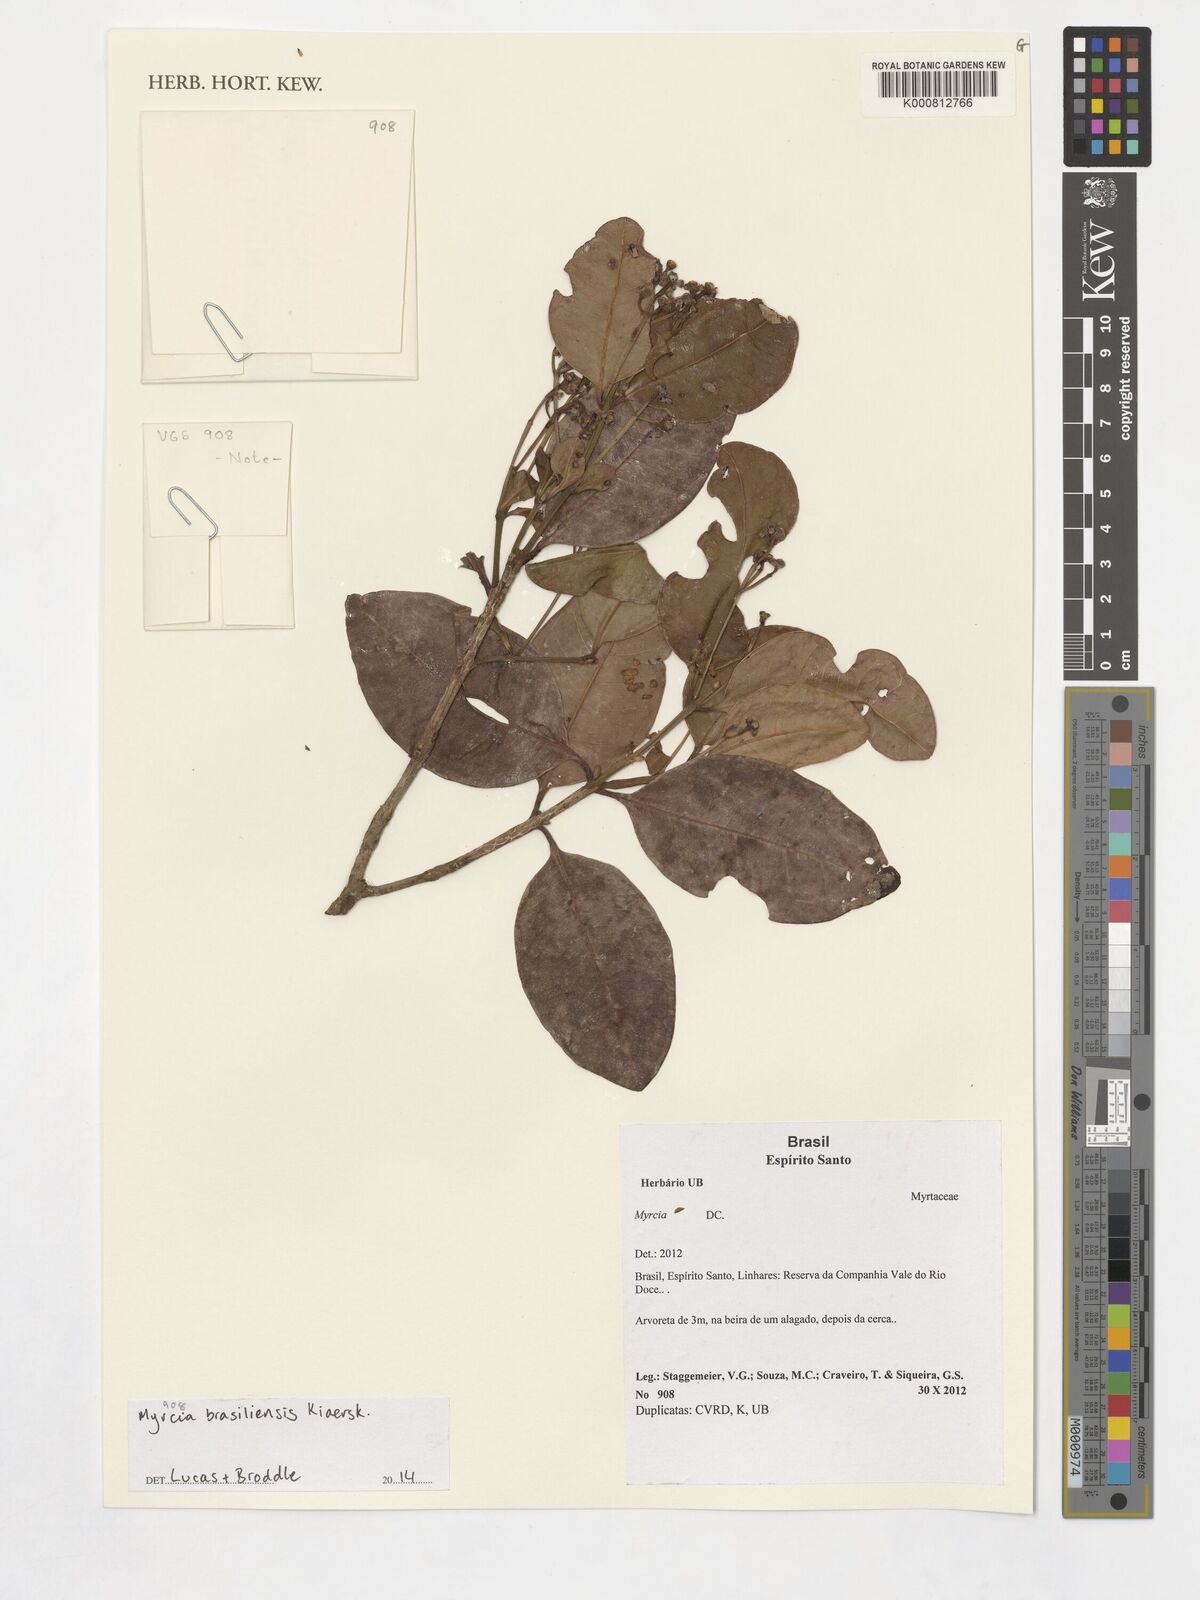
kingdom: Plantae
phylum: Tracheophyta
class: Magnoliopsida
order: Myrtales
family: Myrtaceae
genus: Myrcia
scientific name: Myrcia freyreissiana
